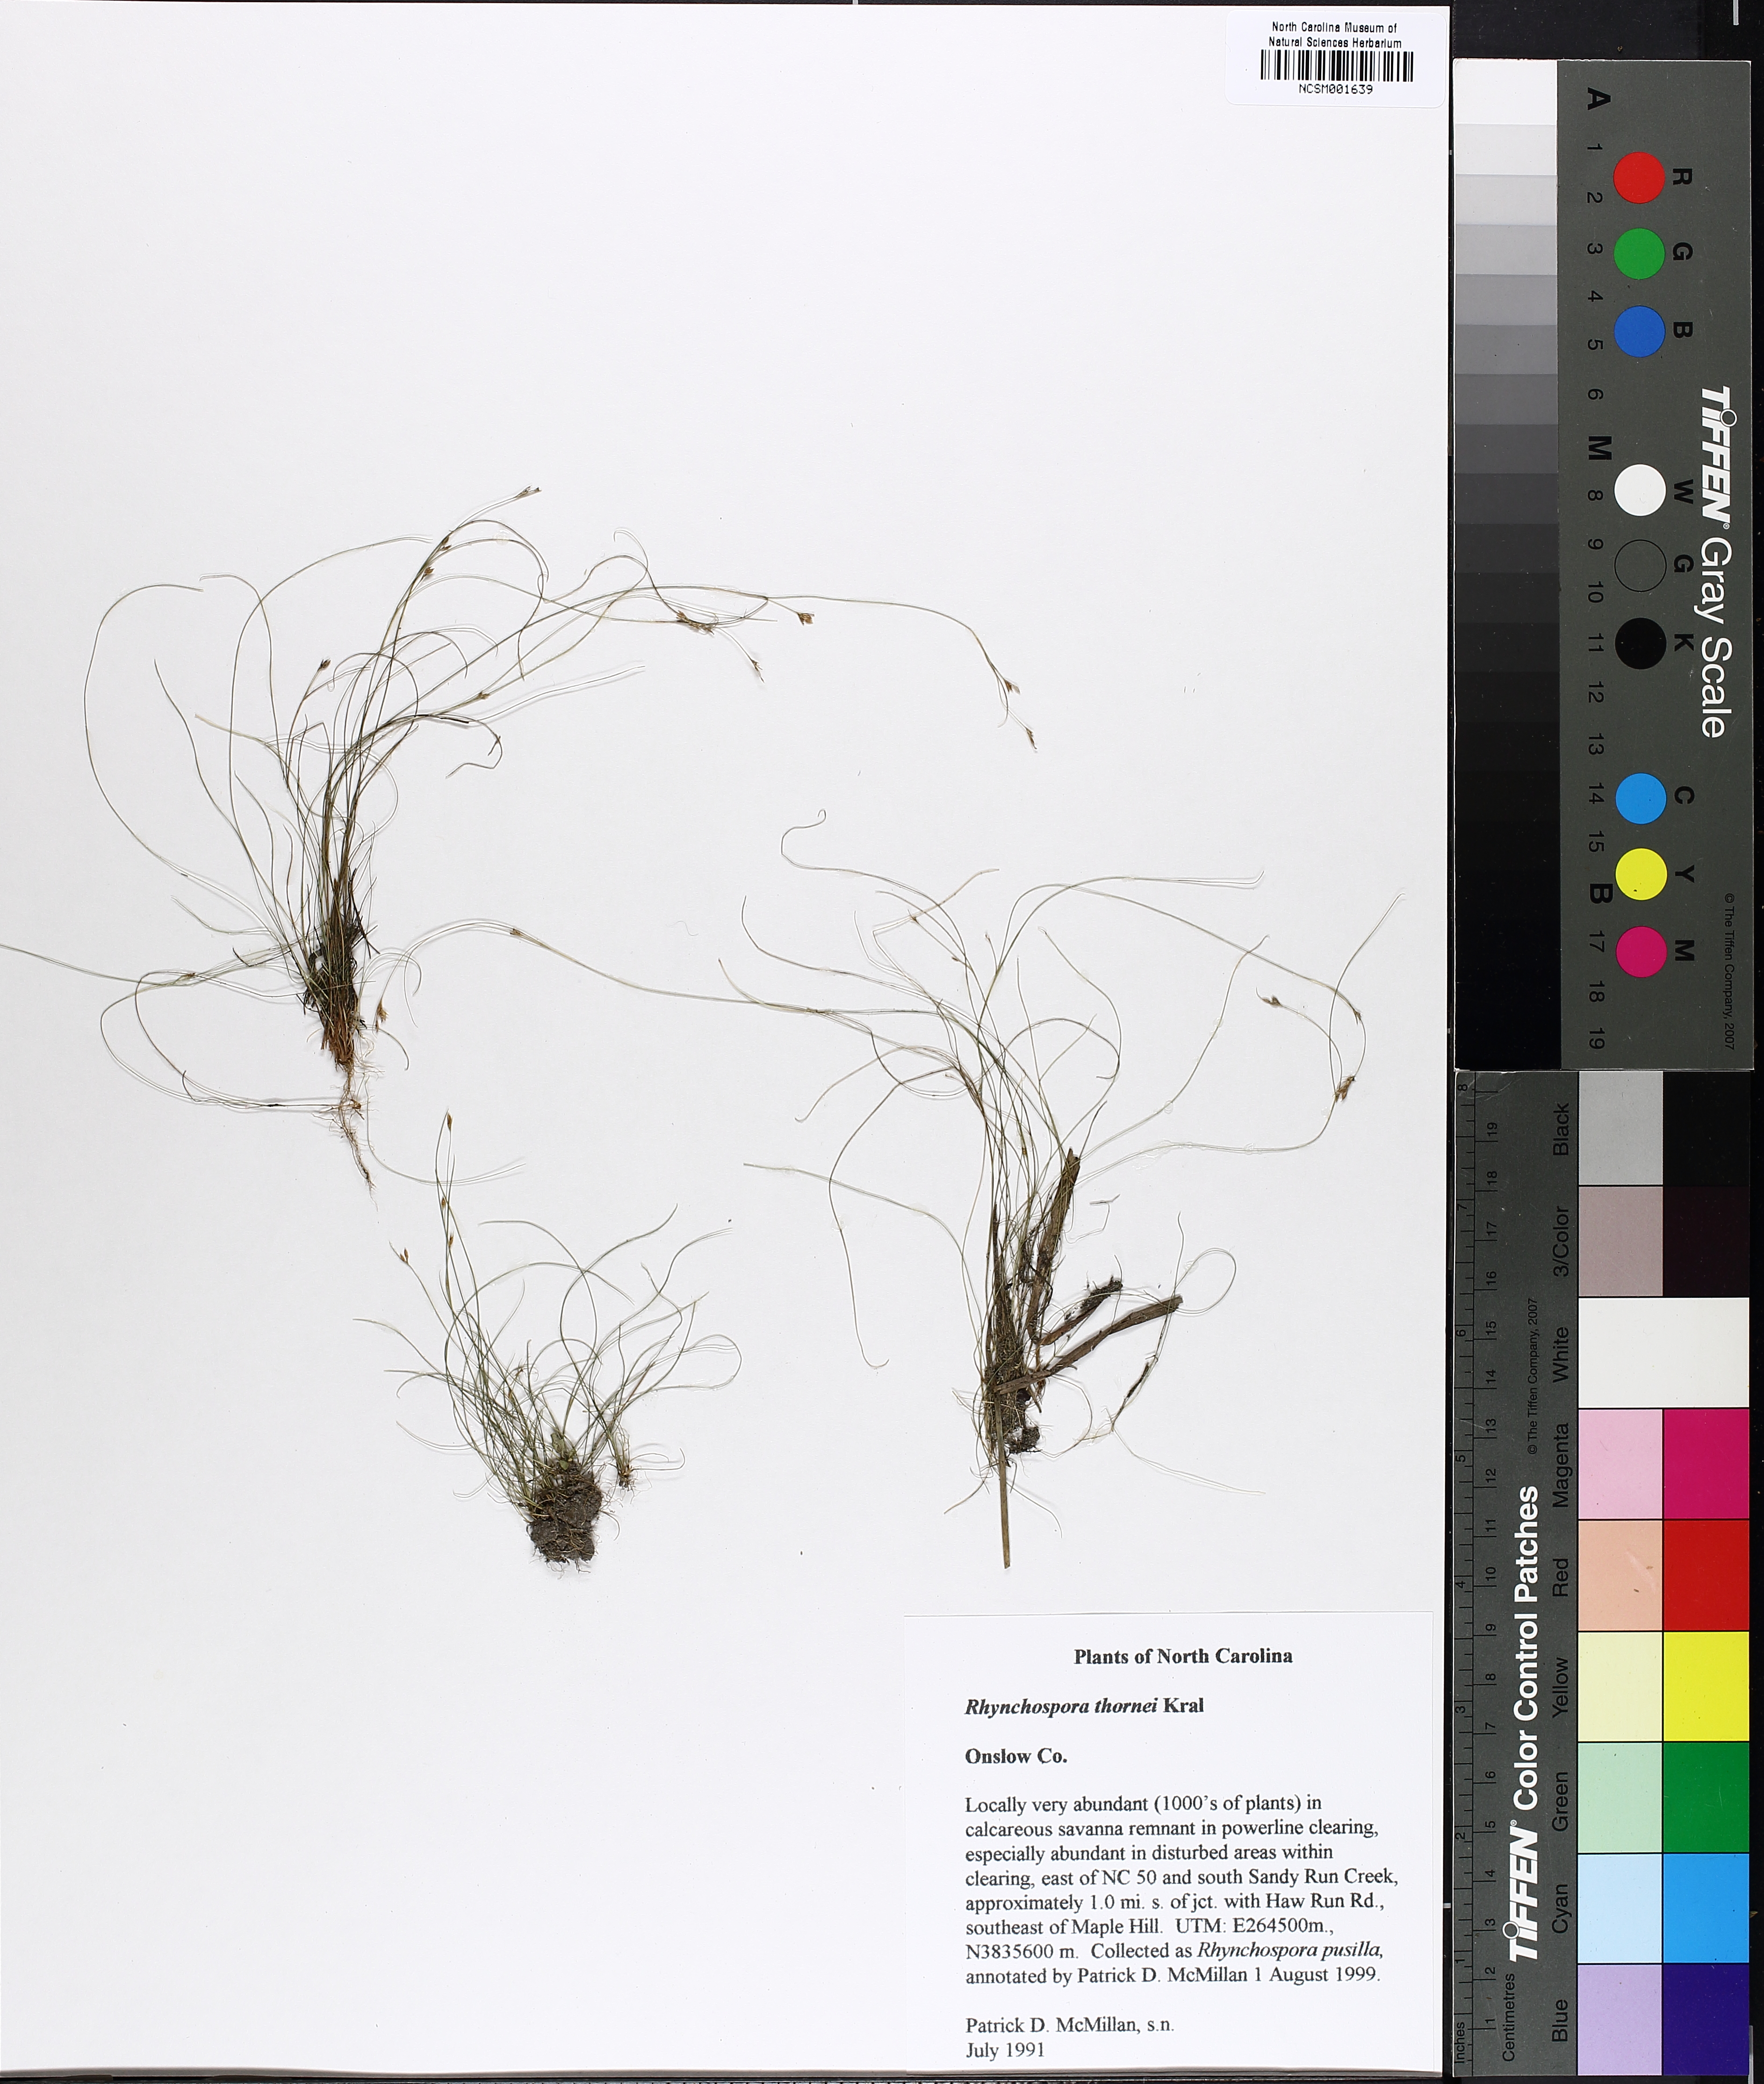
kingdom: Plantae
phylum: Tracheophyta
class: Liliopsida
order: Poales
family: Cyperaceae
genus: Rhynchospora
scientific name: Rhynchospora thornei
